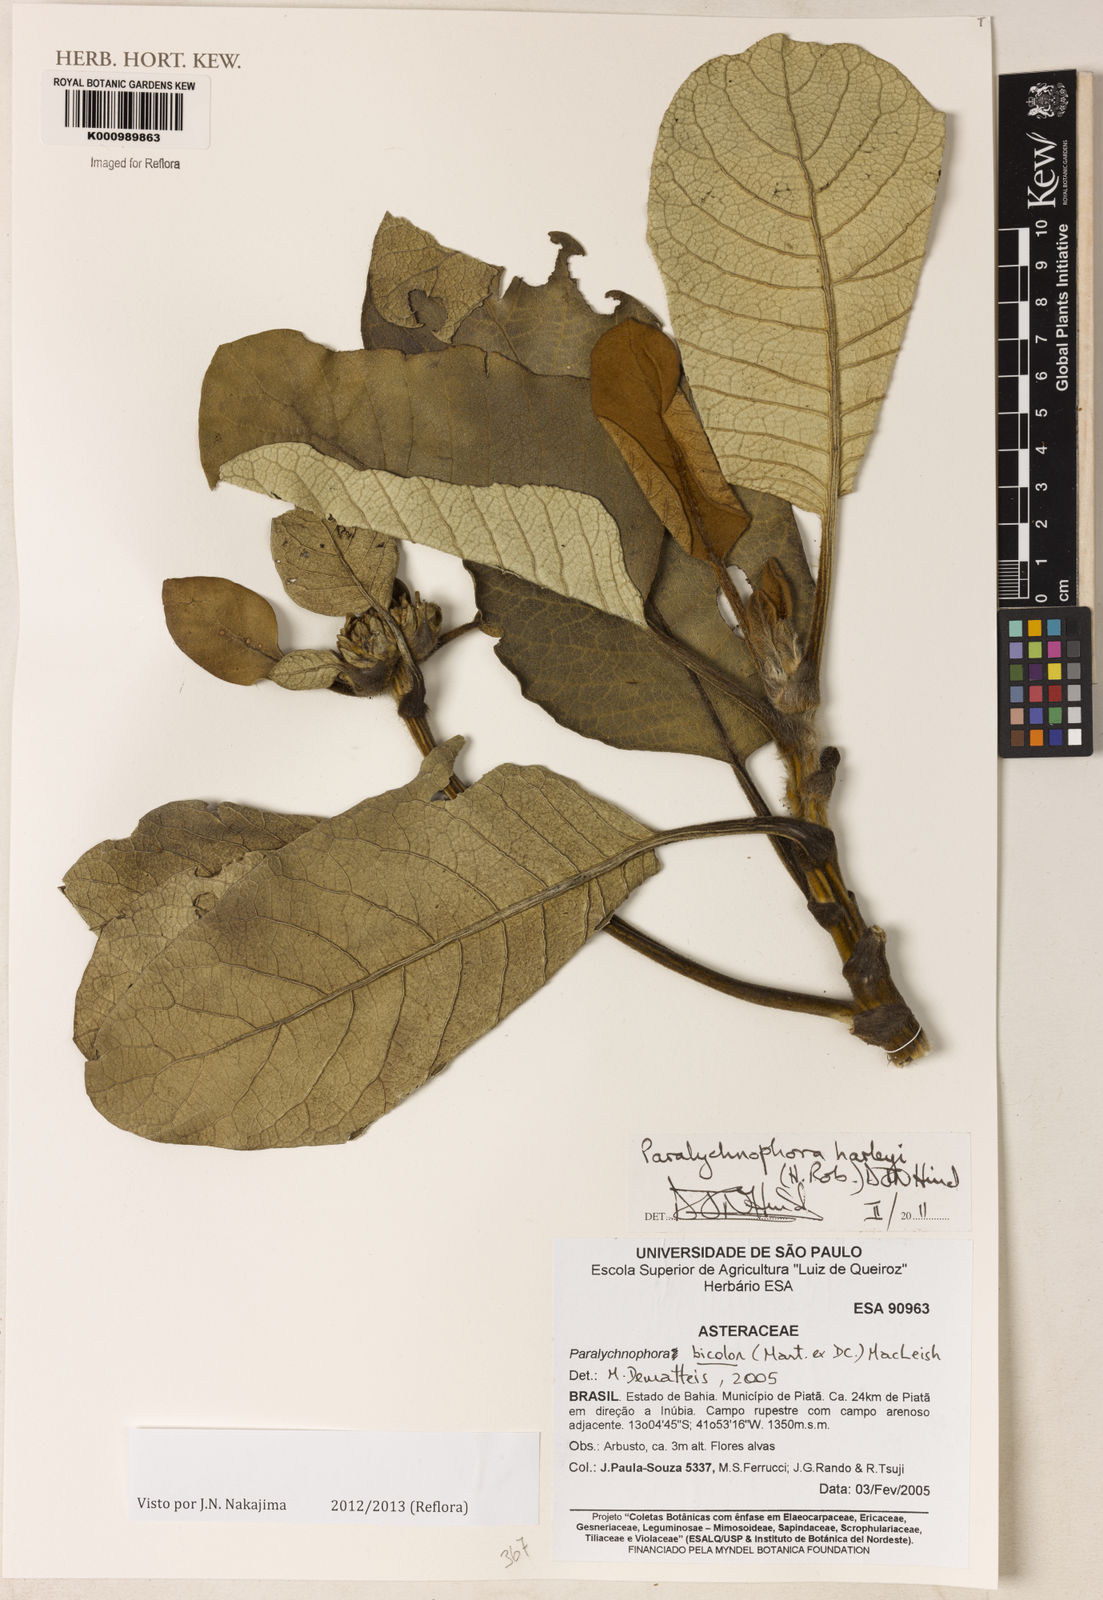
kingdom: Plantae
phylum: Tracheophyta
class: Magnoliopsida
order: Asterales
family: Asteraceae
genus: Paralychnophora
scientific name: Paralychnophora harleyi
